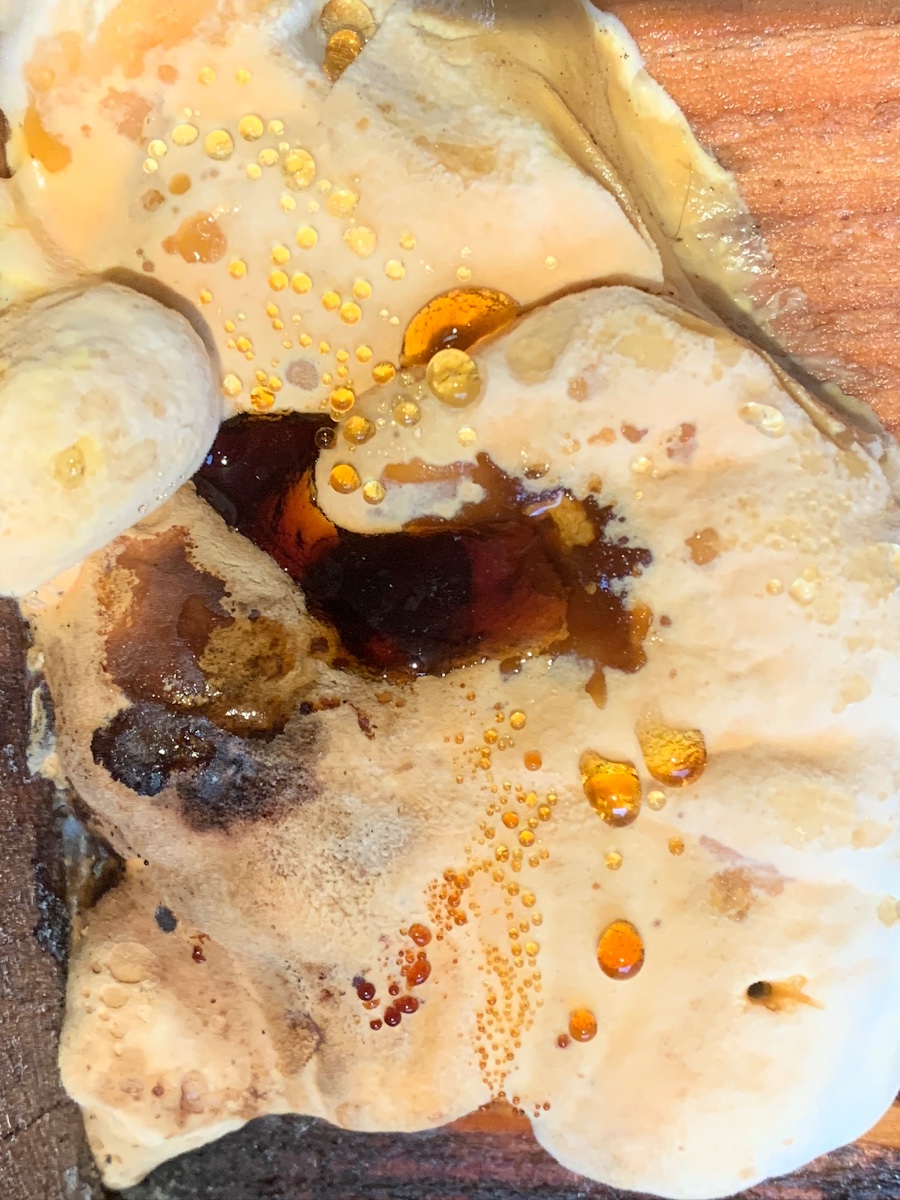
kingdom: Fungi
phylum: Basidiomycota
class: Agaricomycetes
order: Polyporales
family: Ischnodermataceae
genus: Ischnoderma
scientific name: Ischnoderma
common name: tjæreporesvamp
